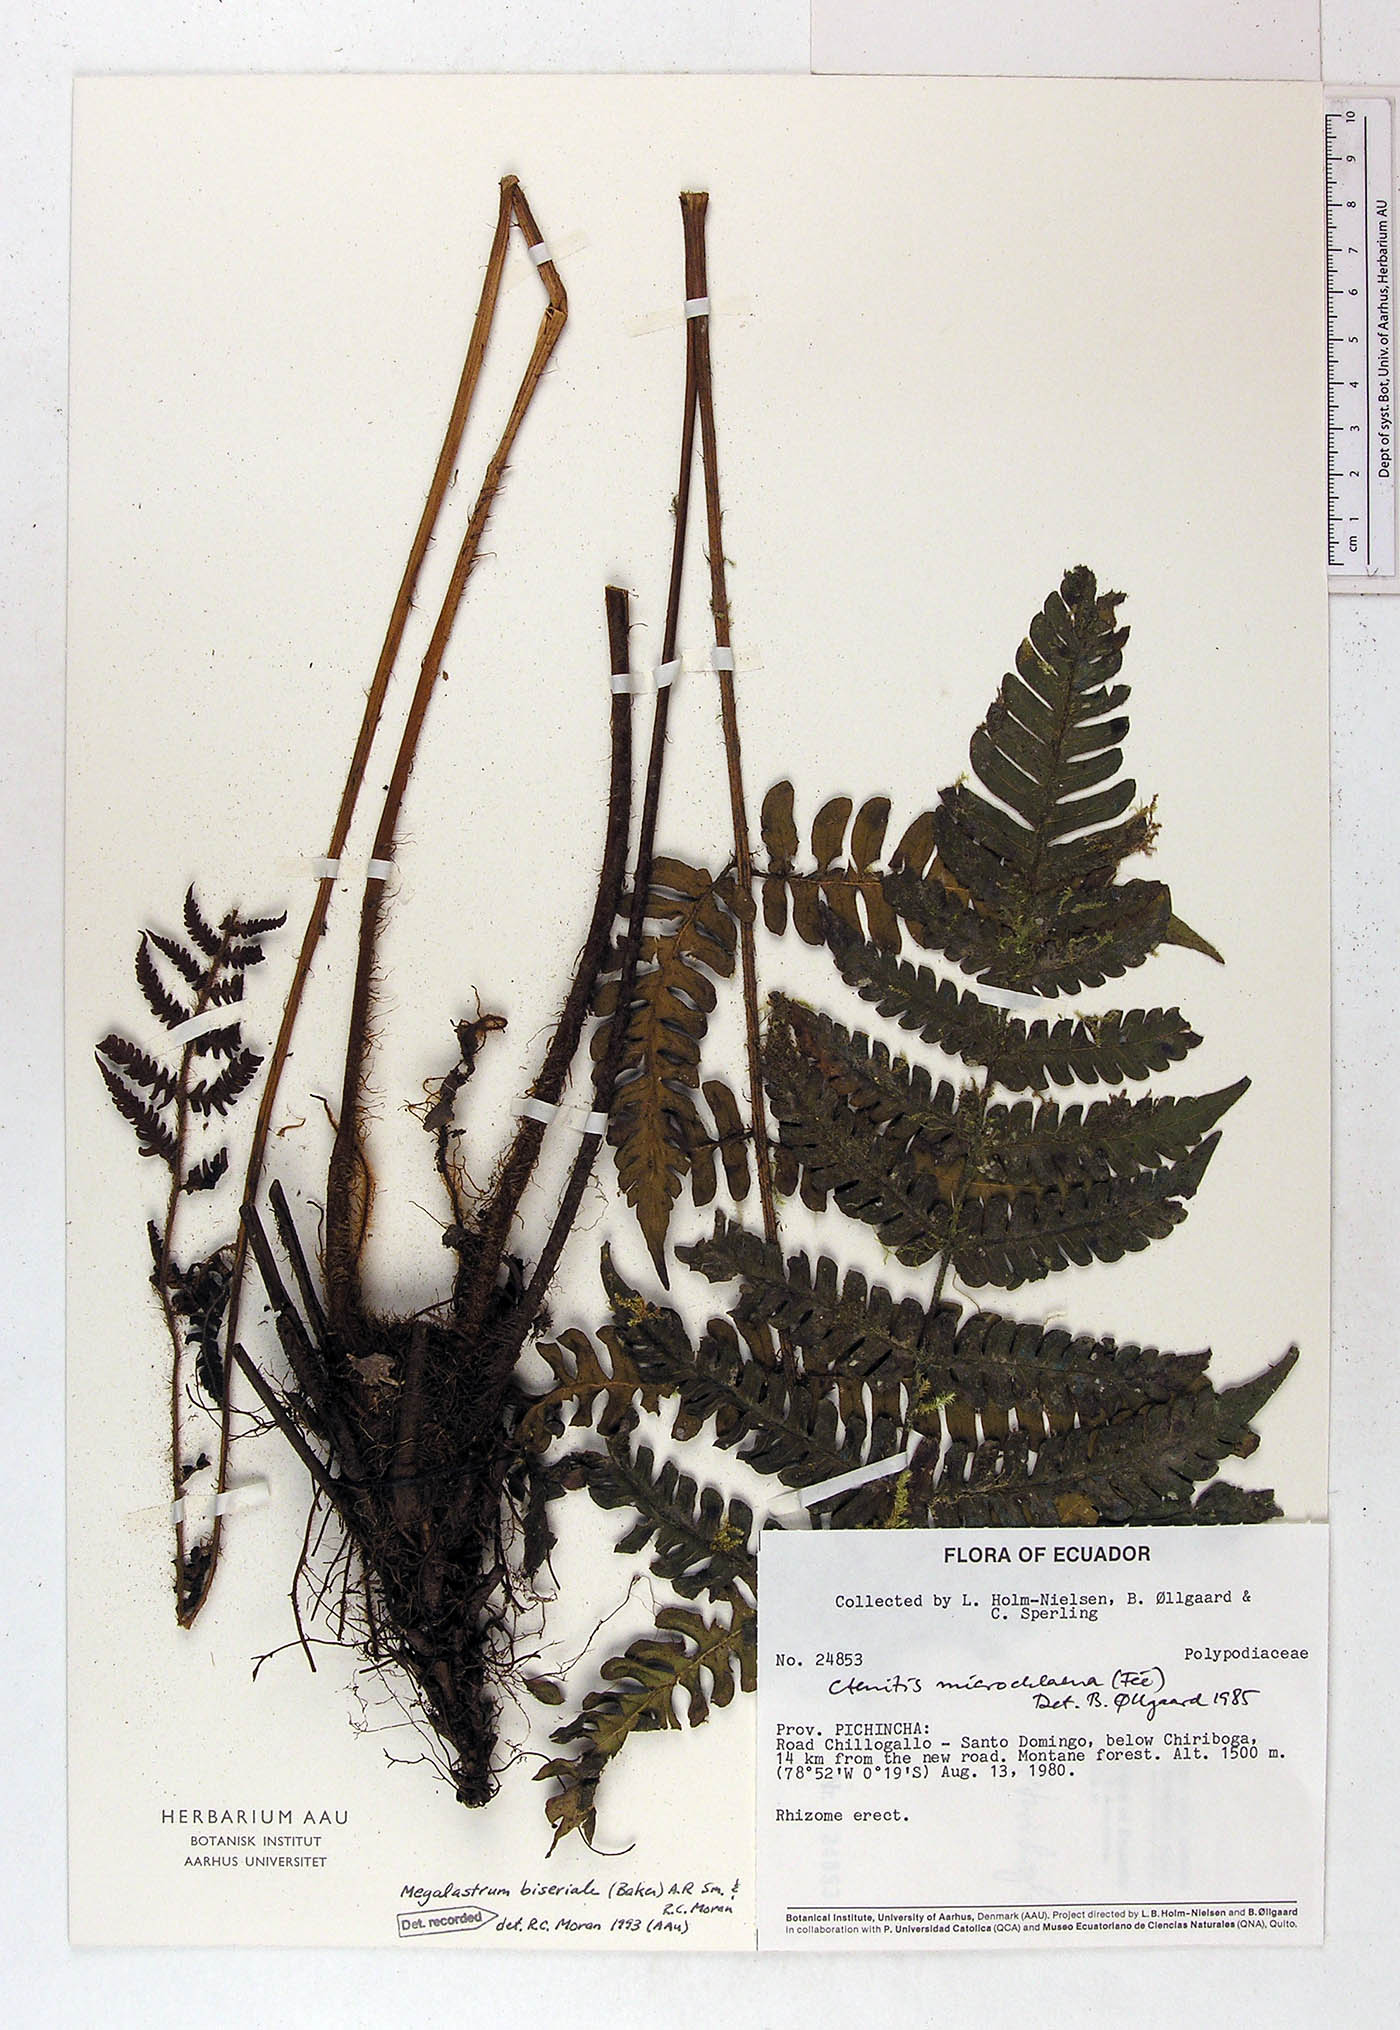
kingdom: Plantae
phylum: Tracheophyta
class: Polypodiopsida
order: Polypodiales
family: Dryopteridaceae
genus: Megalastrum
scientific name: Megalastrum biseriale
